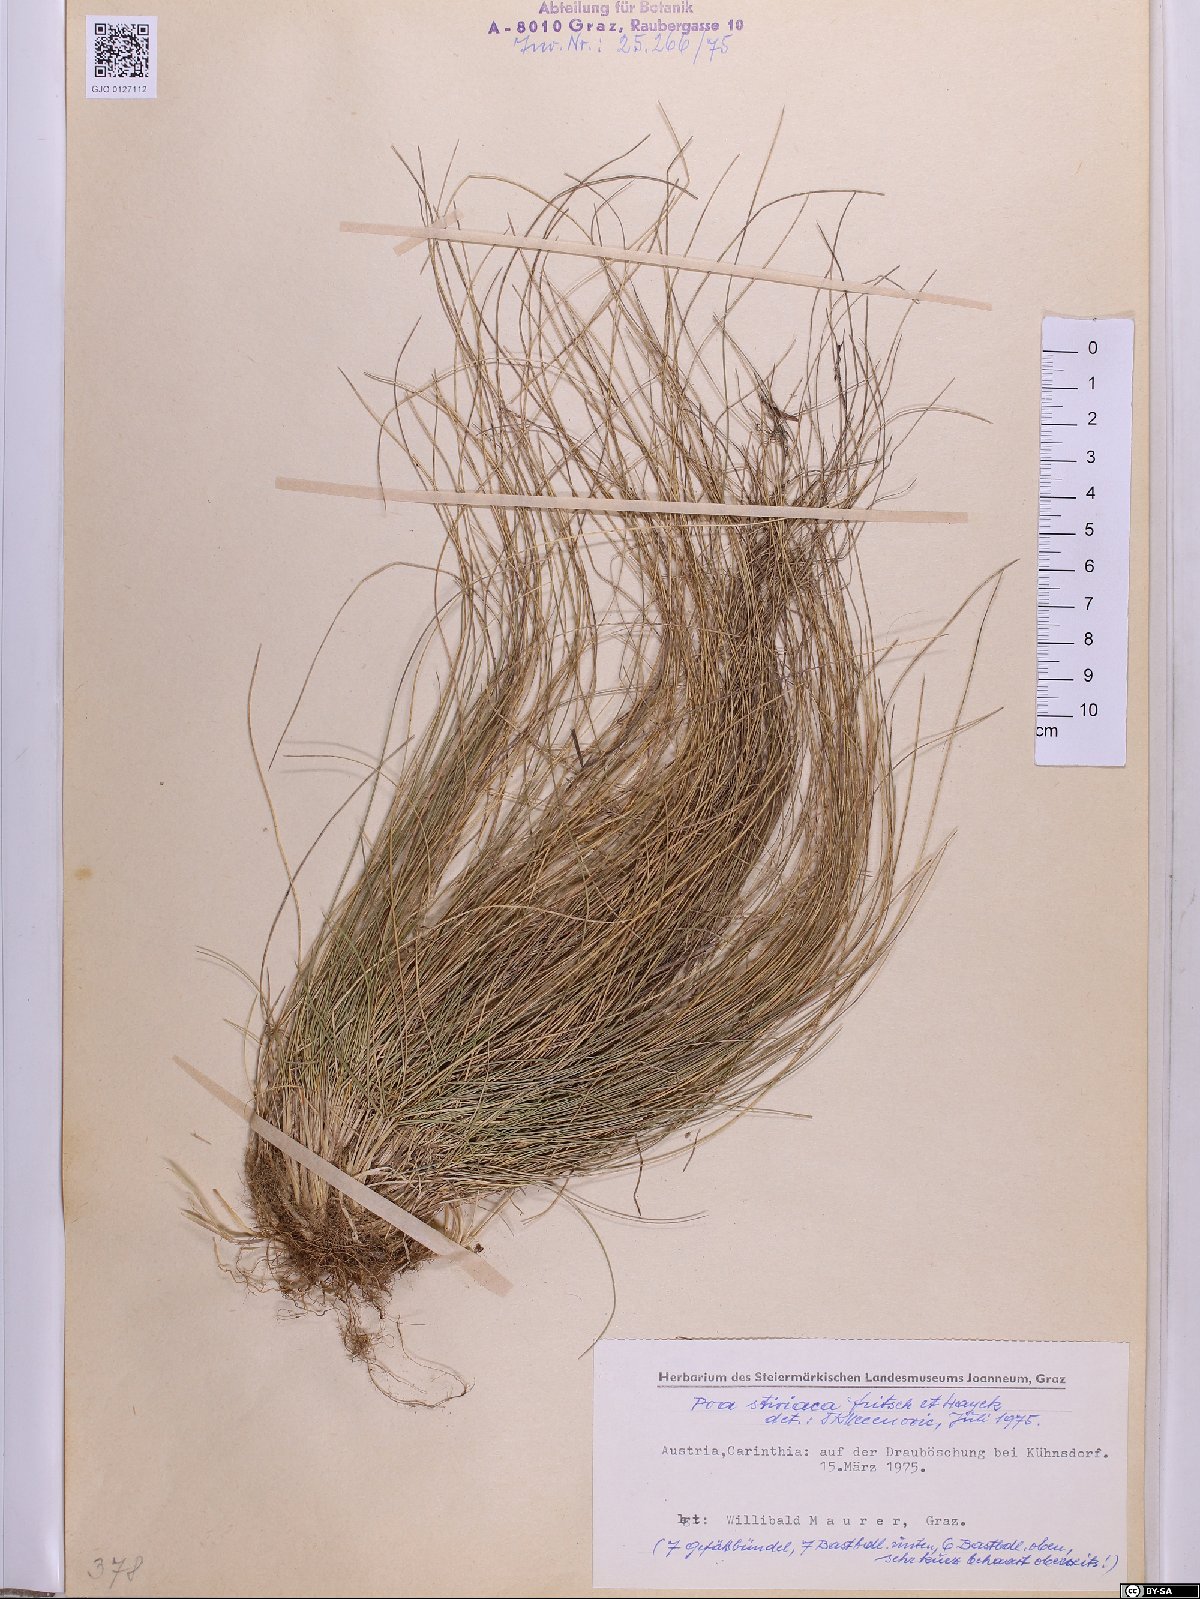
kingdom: Plantae
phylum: Tracheophyta
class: Liliopsida
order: Poales
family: Poaceae
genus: Poa
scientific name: Poa stiriaca
